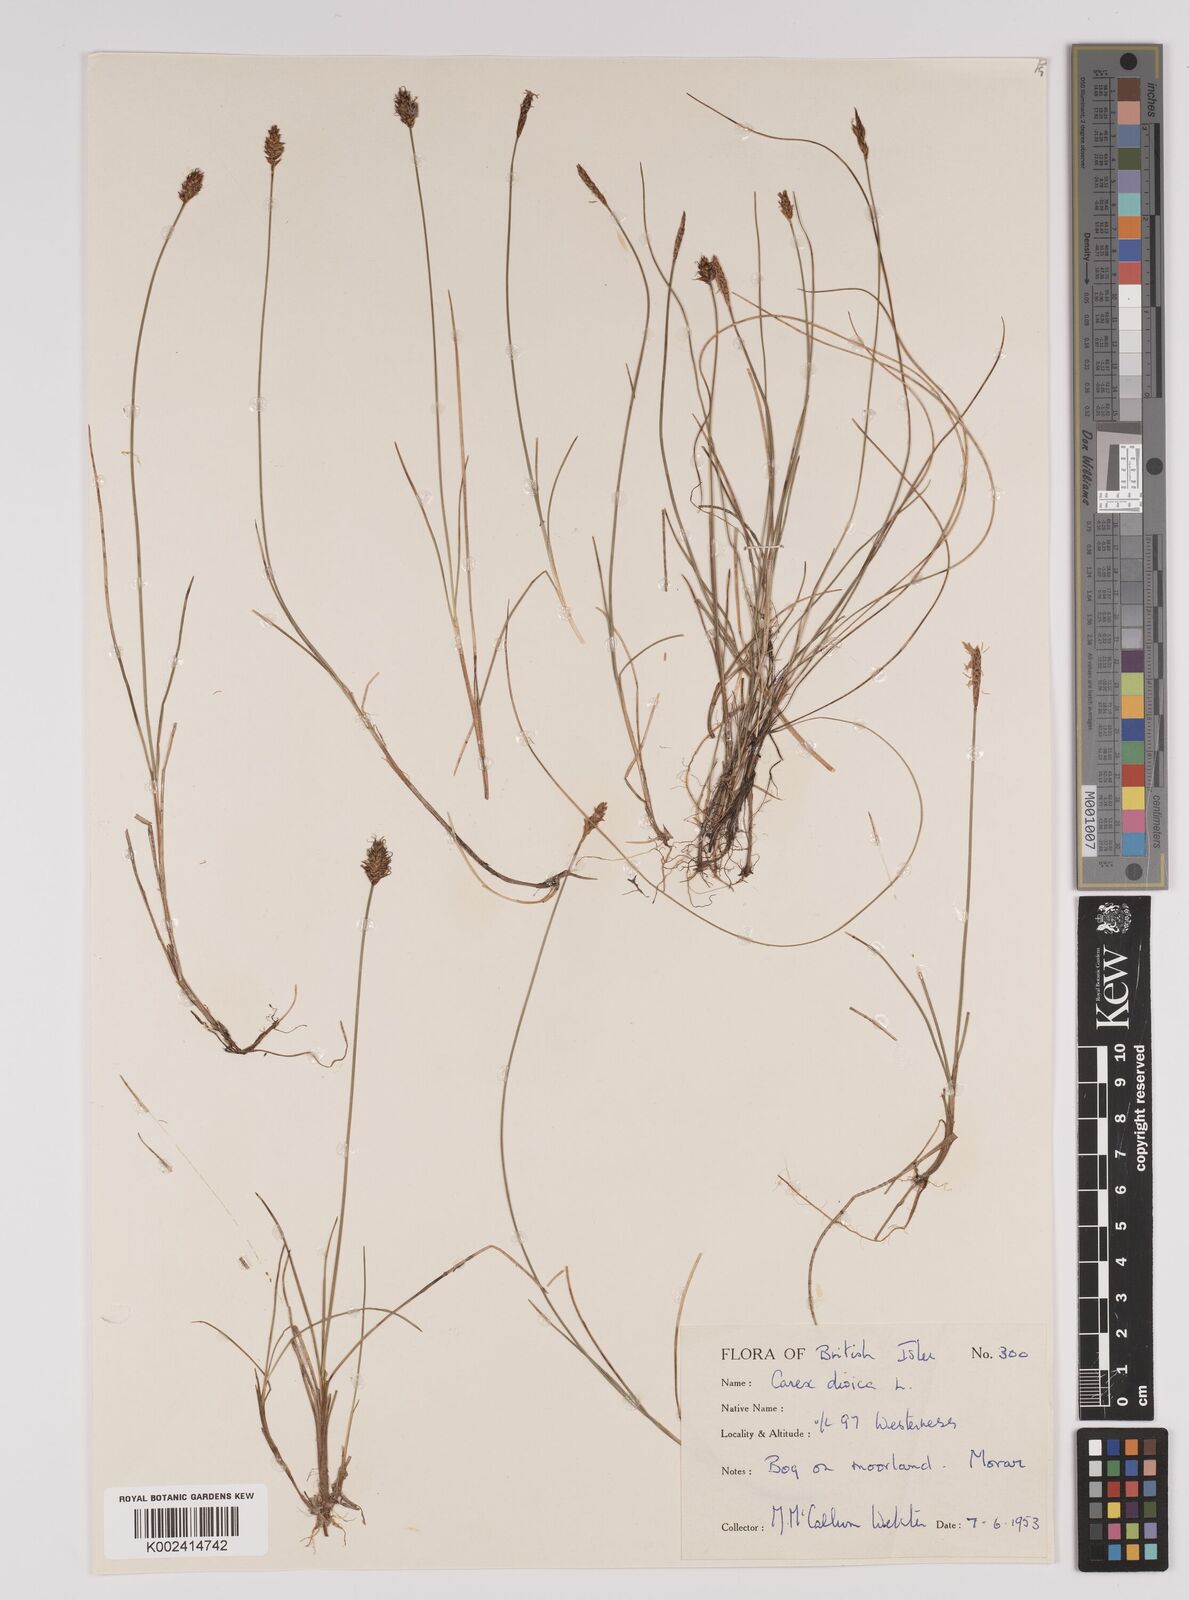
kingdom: Plantae
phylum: Tracheophyta
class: Liliopsida
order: Poales
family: Cyperaceae
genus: Carex
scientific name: Carex dioica
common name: Dioecious sedge
